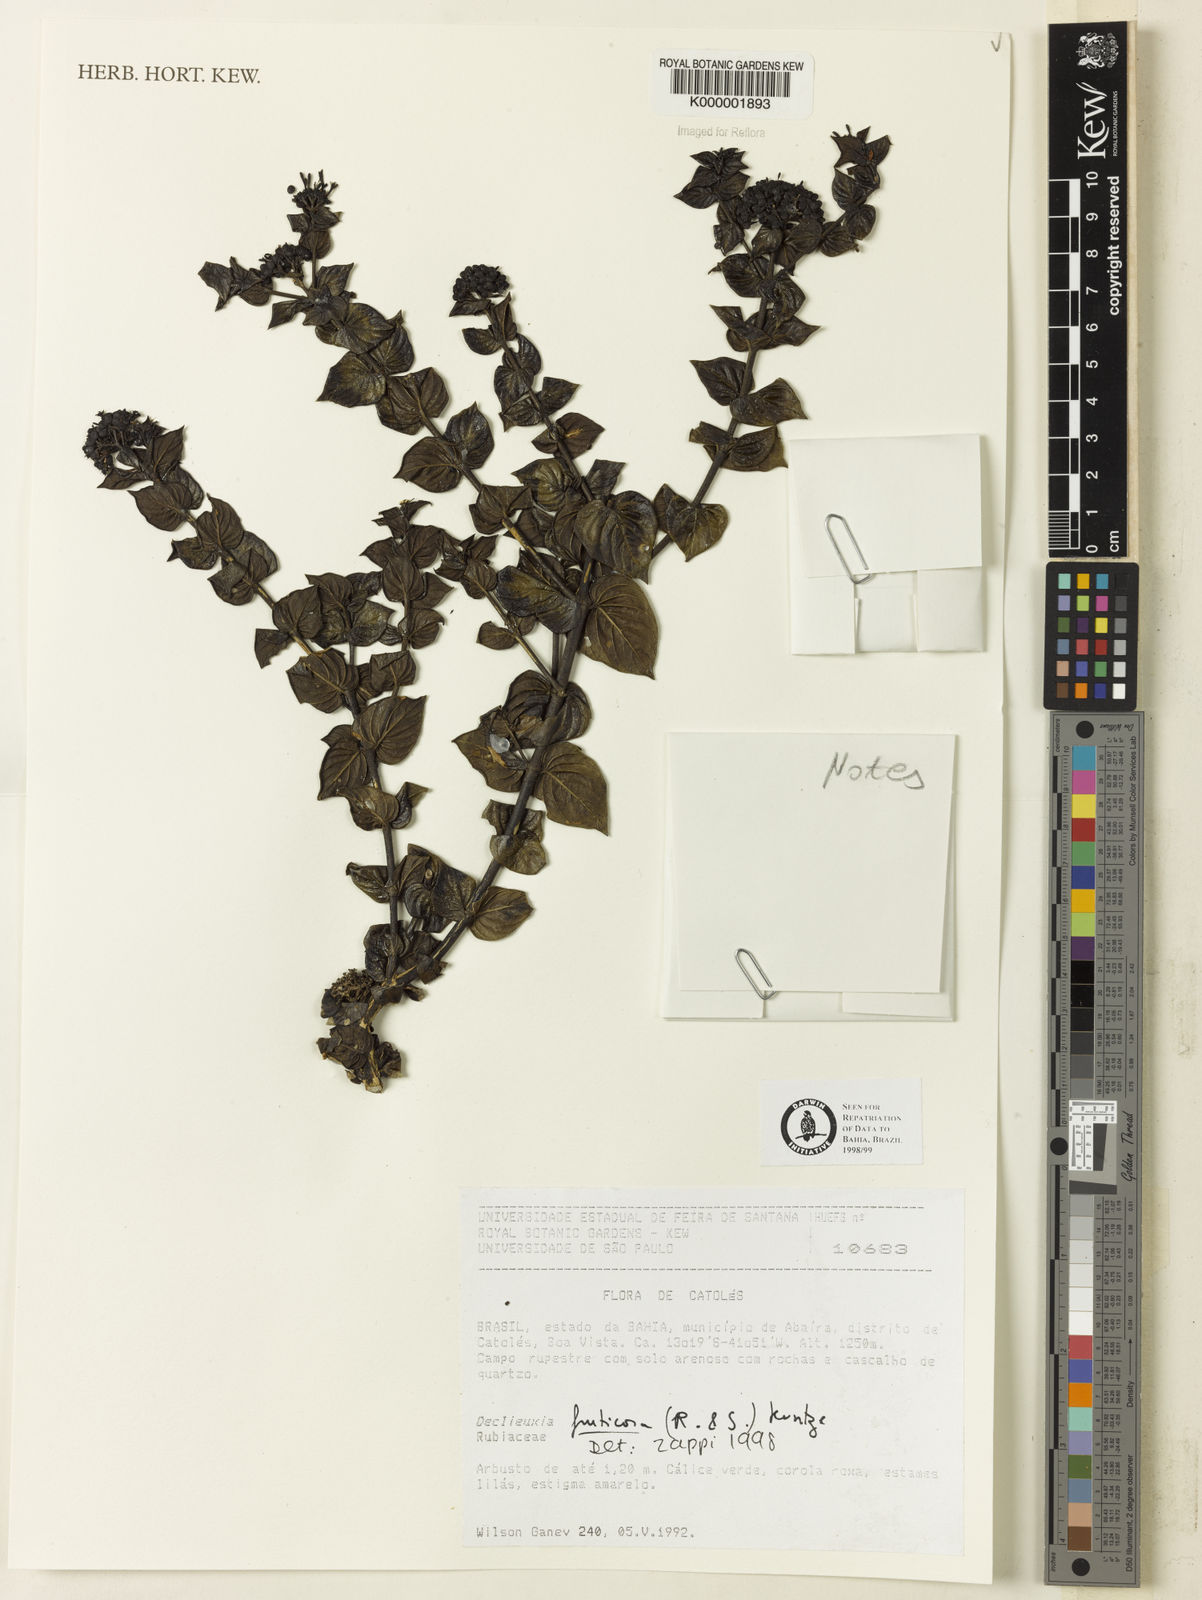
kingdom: Plantae
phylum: Tracheophyta
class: Magnoliopsida
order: Gentianales
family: Rubiaceae
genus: Declieuxia
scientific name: Declieuxia fruticosa
